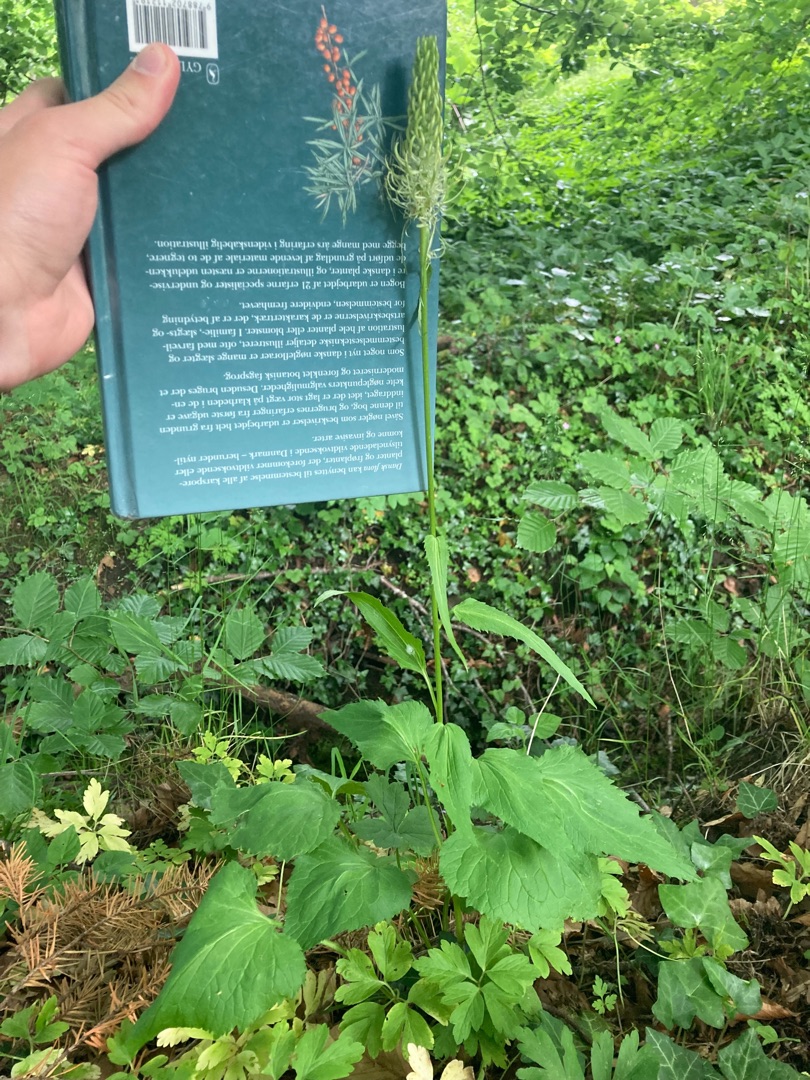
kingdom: Plantae
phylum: Tracheophyta
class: Magnoliopsida
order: Asterales
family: Campanulaceae
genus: Phyteuma
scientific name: Phyteuma spicatum
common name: Aks-rapunsel
